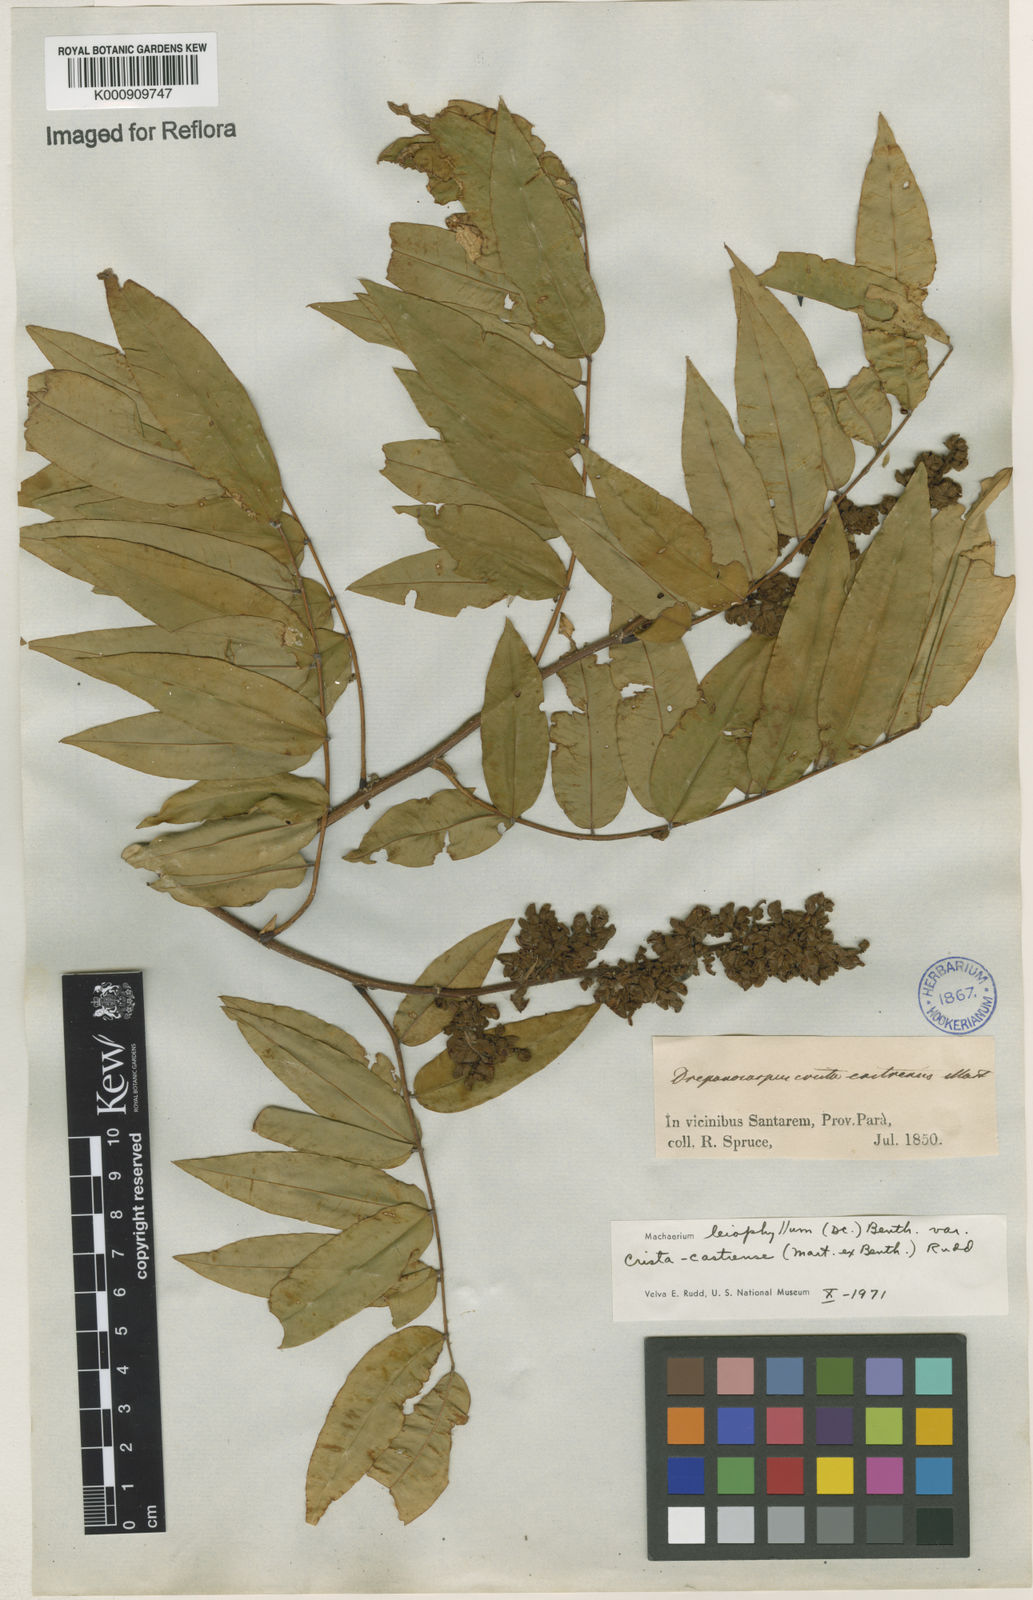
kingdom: Plantae
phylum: Tracheophyta
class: Magnoliopsida
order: Fabales
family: Fabaceae
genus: Machaerium
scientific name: Machaerium leiophyllum
